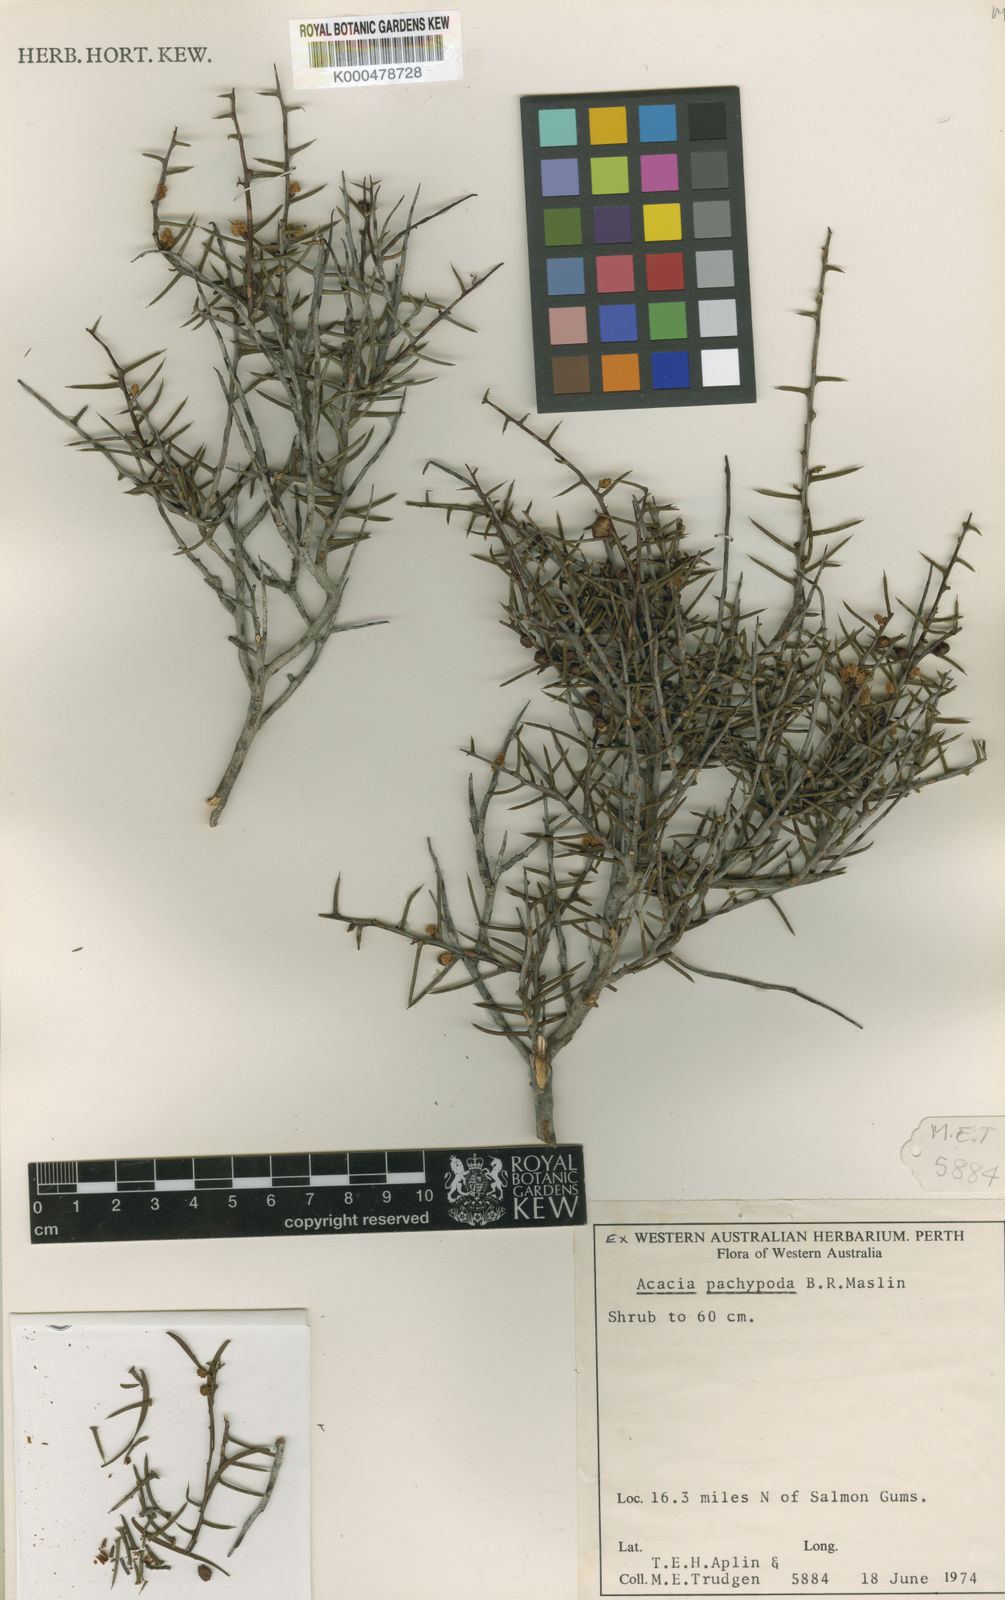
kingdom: Plantae
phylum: Tracheophyta
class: Magnoliopsida
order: Fabales
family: Fabaceae
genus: Acacia
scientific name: Acacia pachypoda
